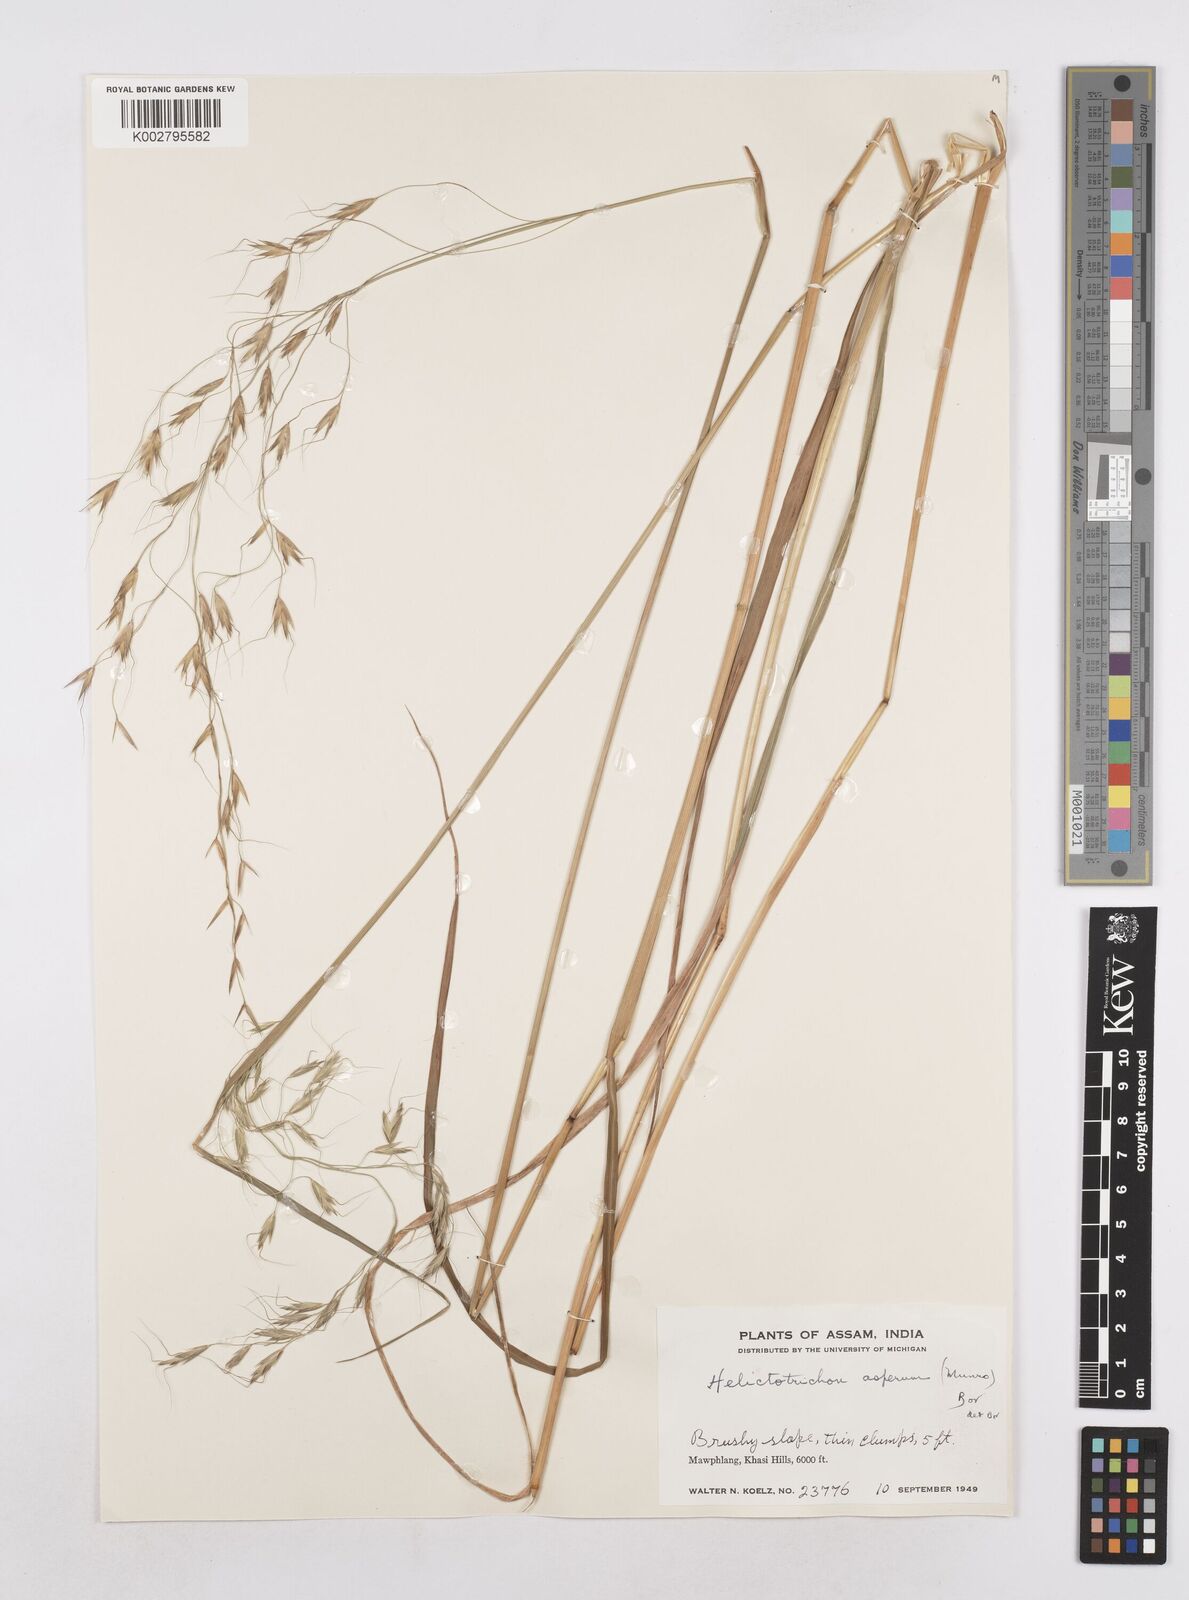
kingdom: Plantae
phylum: Tracheophyta
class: Liliopsida
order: Poales
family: Poaceae
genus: Trisetopsis
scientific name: Trisetopsis junghuhnii
